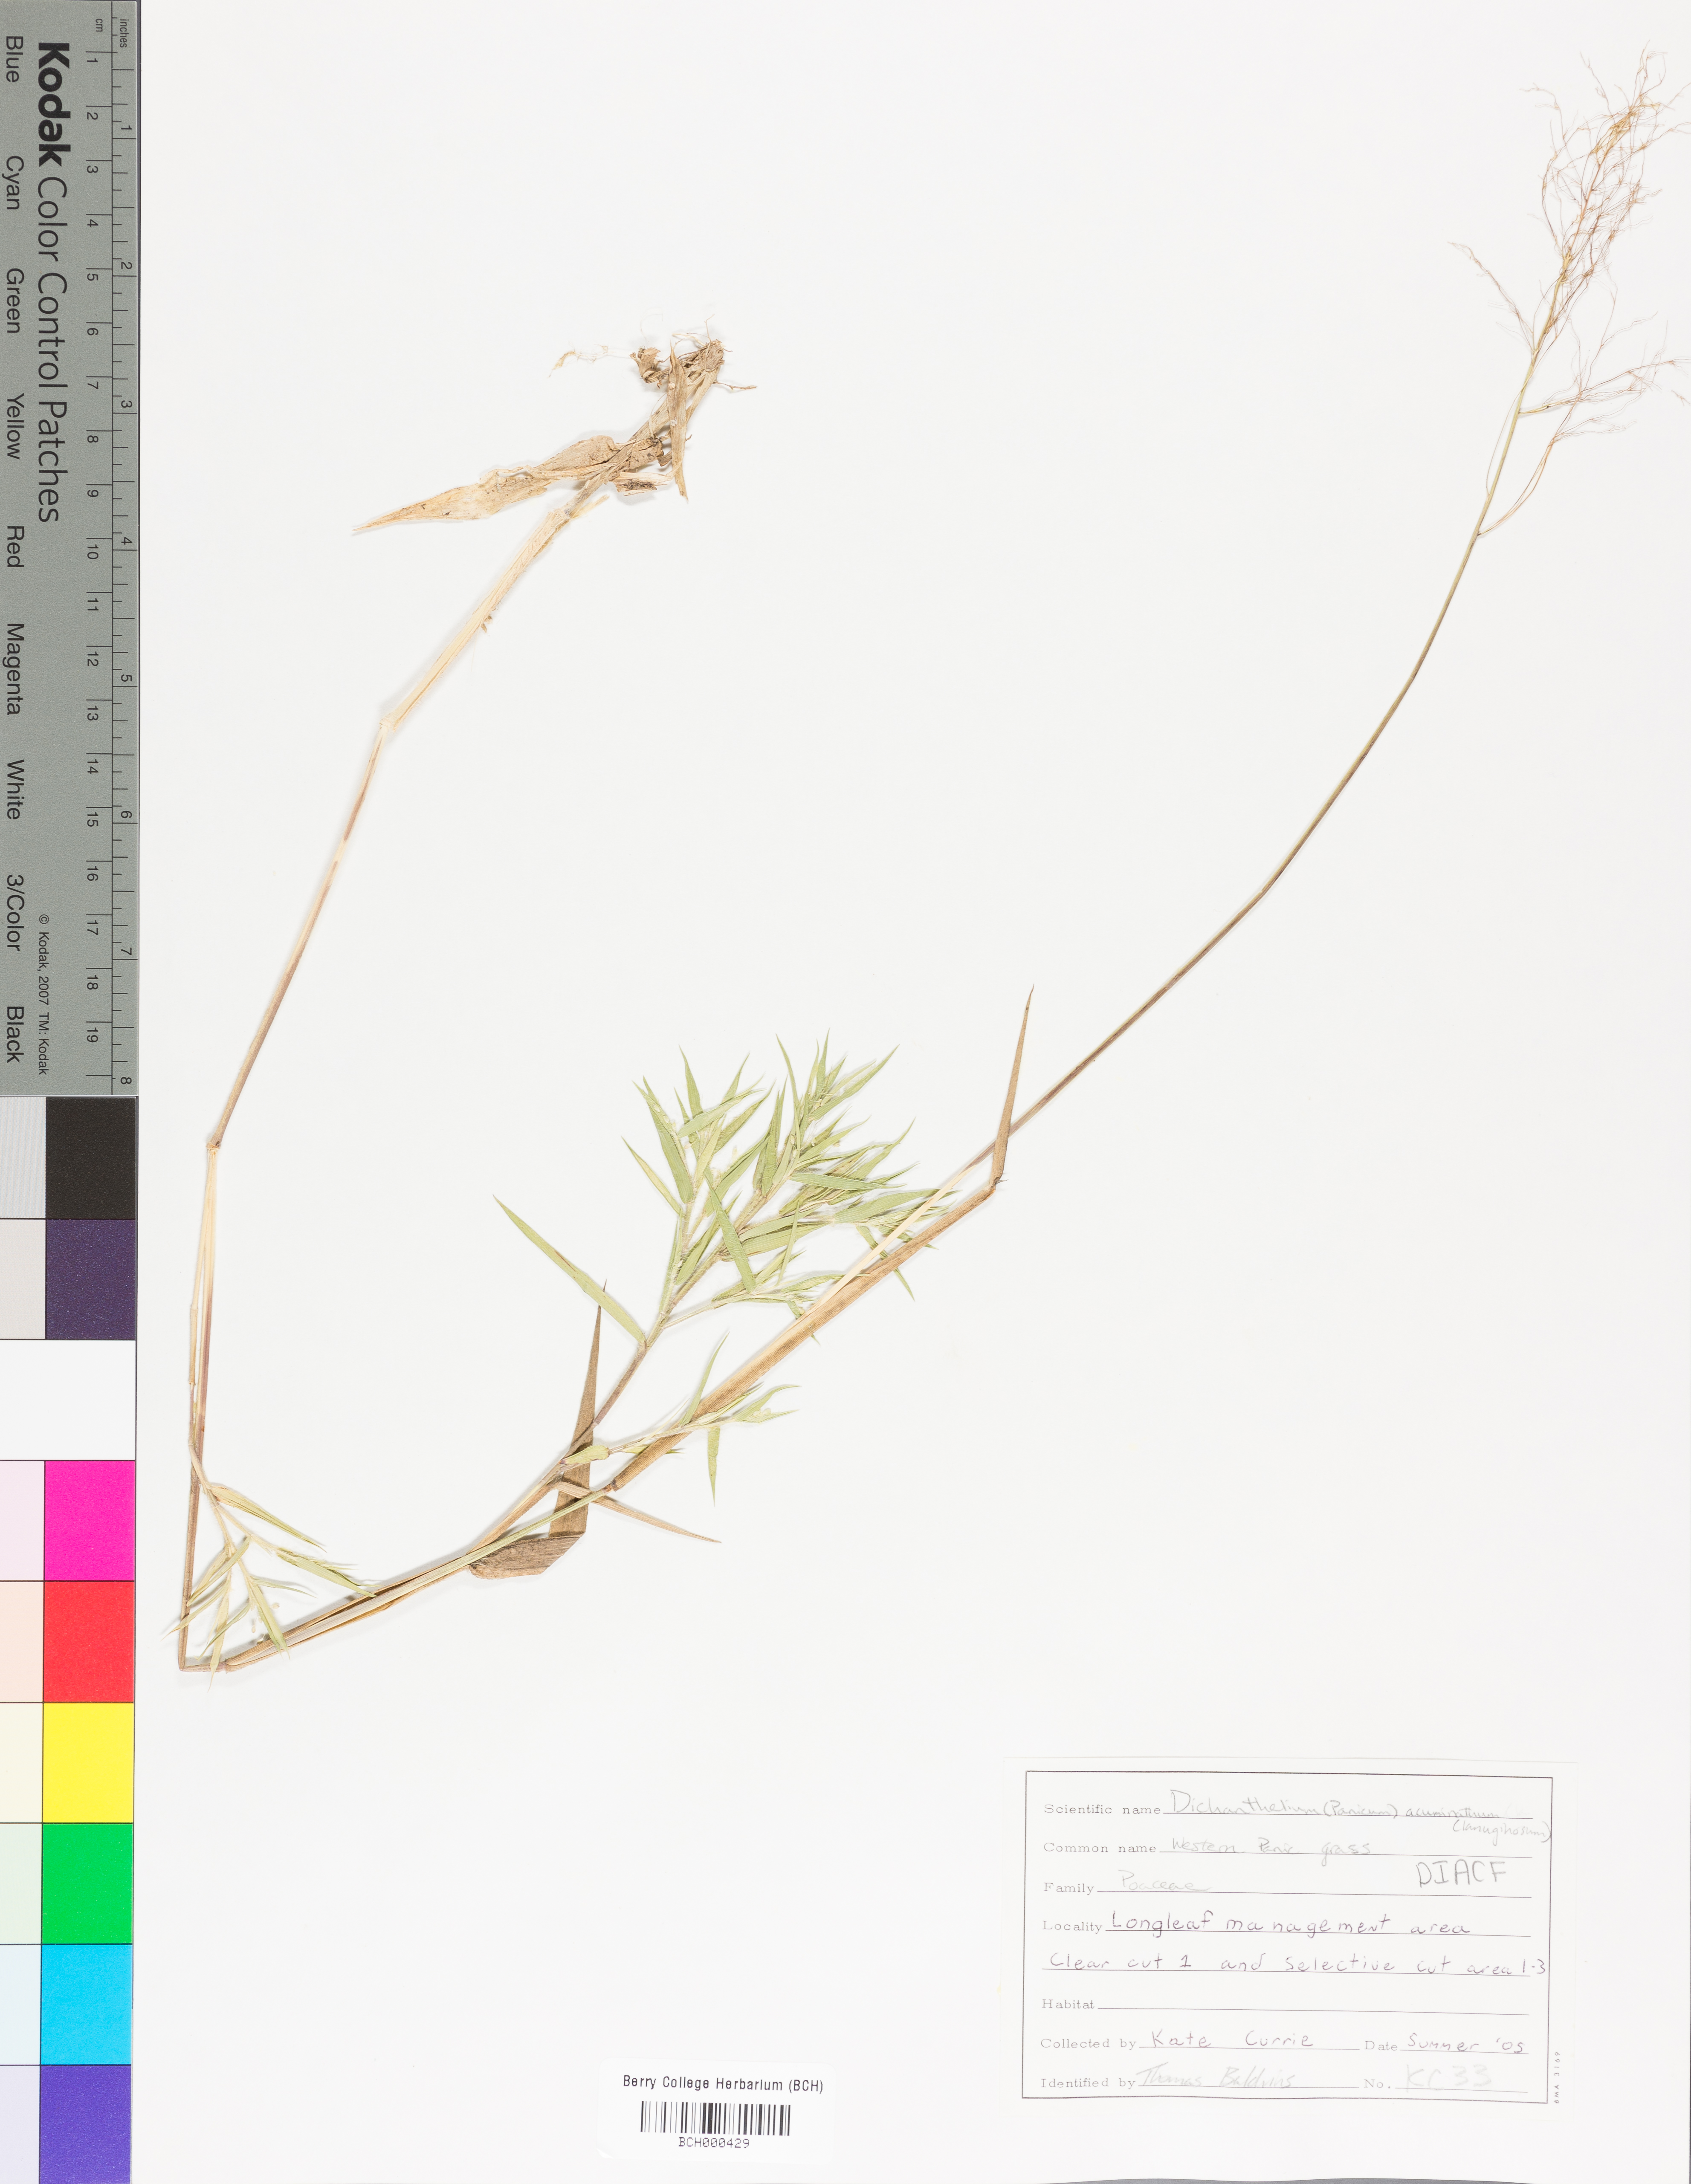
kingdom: Plantae
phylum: Tracheophyta
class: Liliopsida
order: Poales
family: Poaceae
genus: Dichanthelium
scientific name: Dichanthelium lanuginosum
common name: Woolly panicgrass
